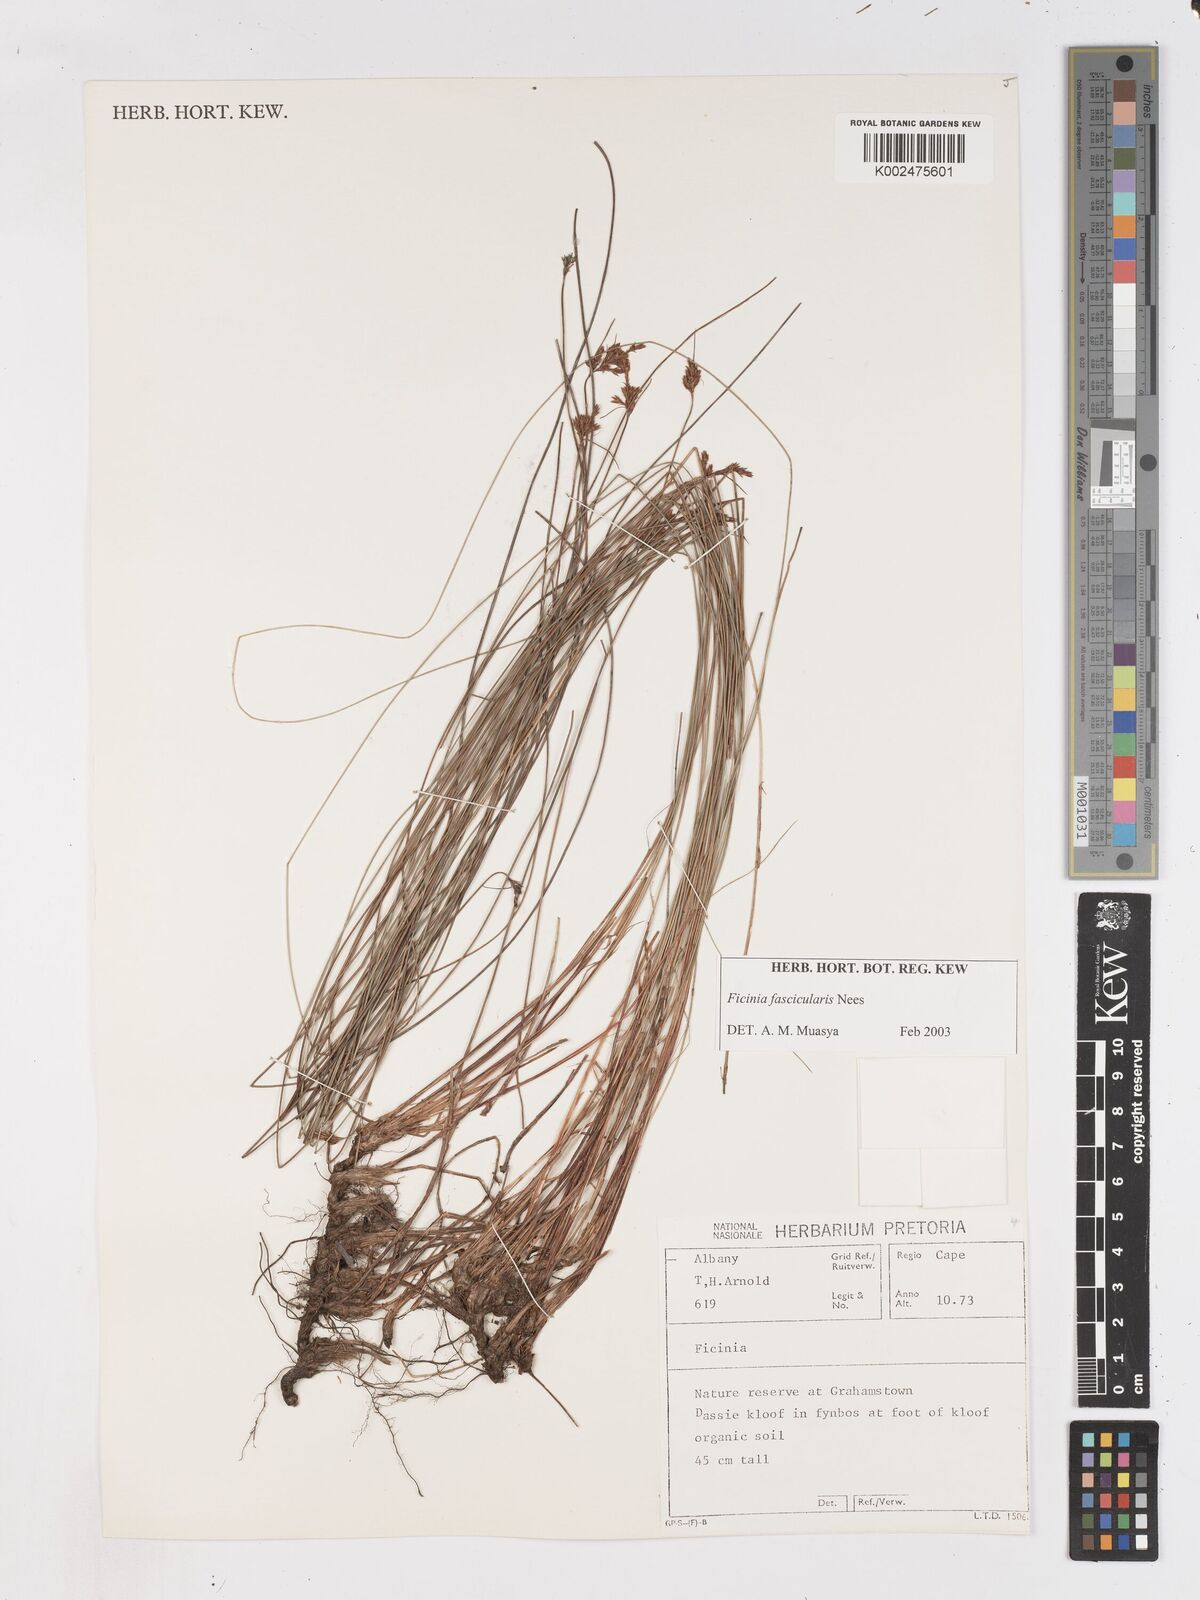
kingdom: Plantae
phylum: Tracheophyta
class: Liliopsida
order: Poales
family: Cyperaceae
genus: Ficinia
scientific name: Ficinia fascicularis
